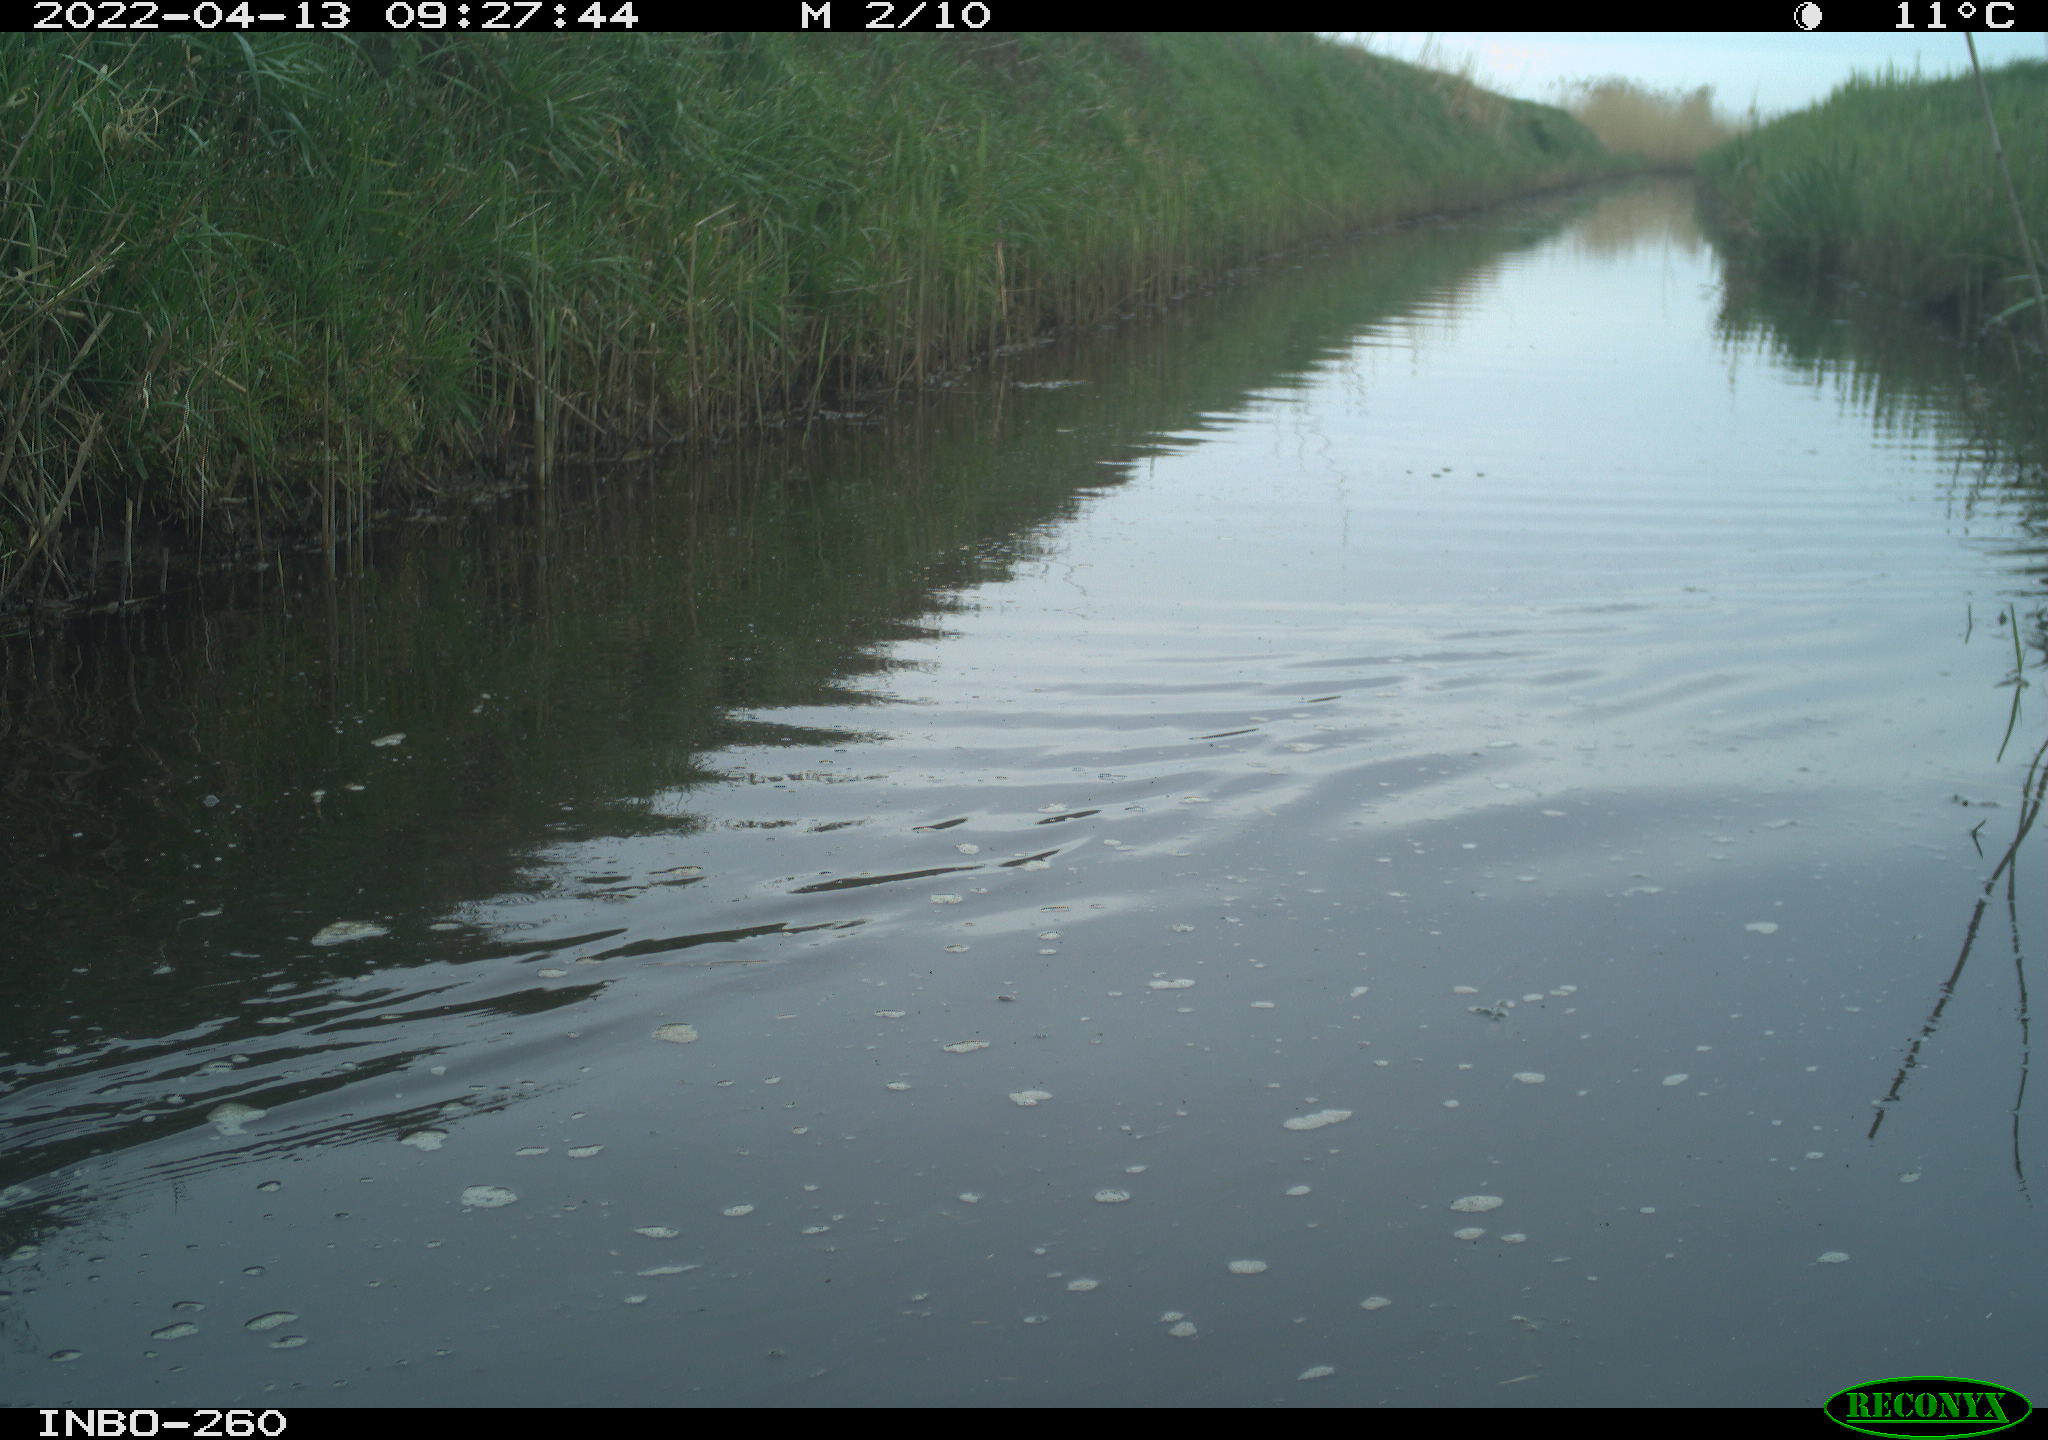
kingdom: Animalia
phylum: Chordata
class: Aves
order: Gruiformes
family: Rallidae
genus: Fulica
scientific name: Fulica atra
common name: Eurasian coot
